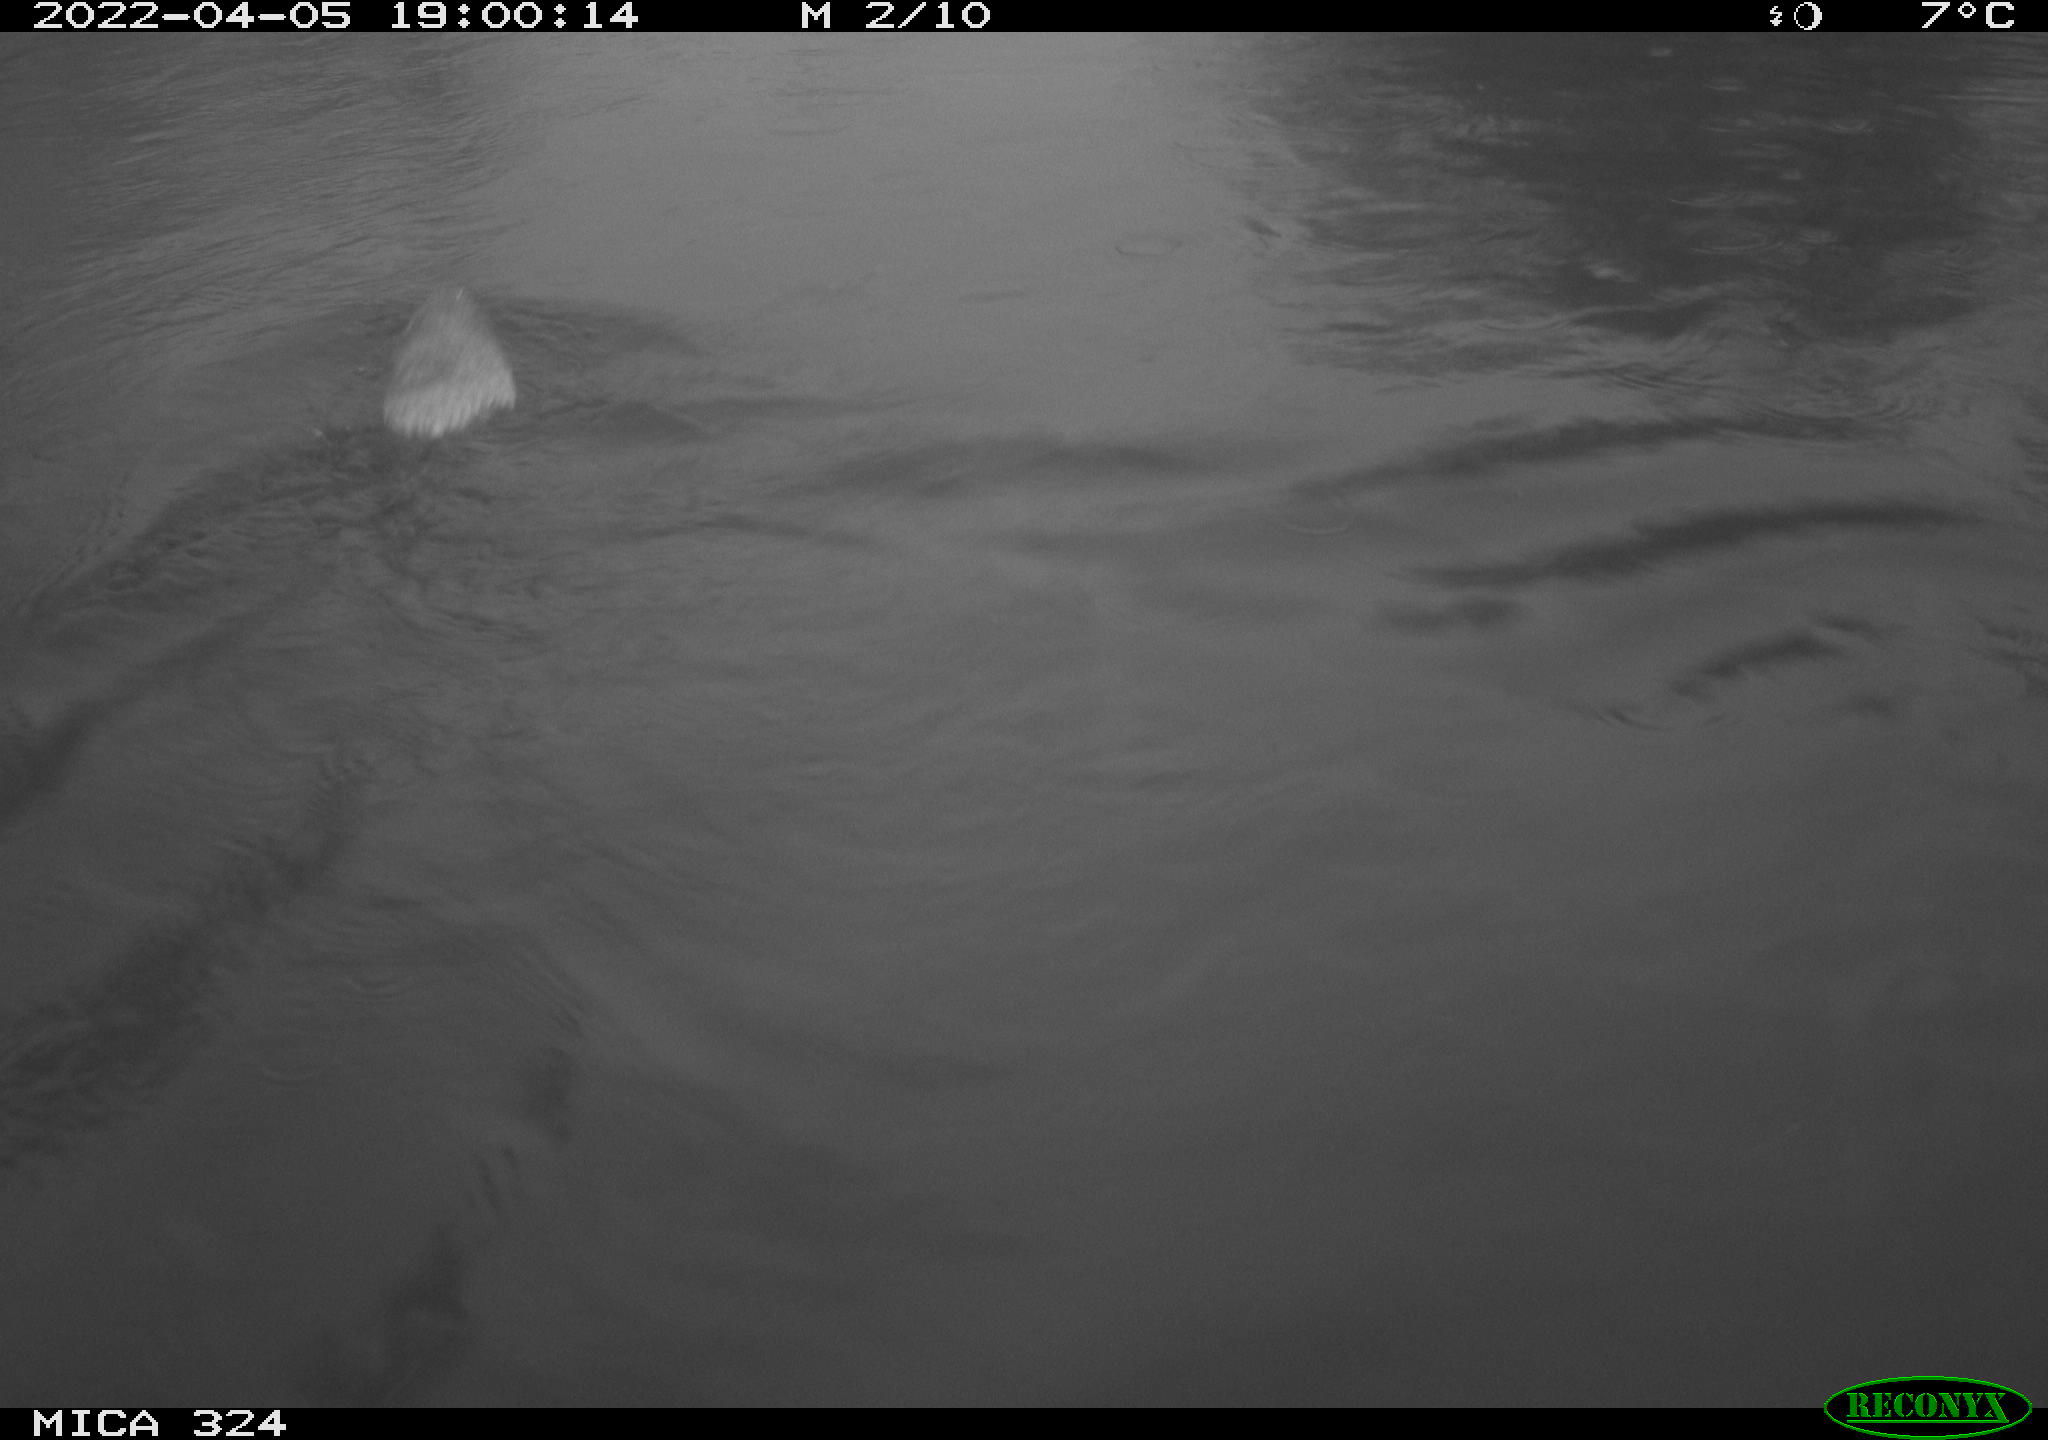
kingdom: Animalia
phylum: Chordata
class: Mammalia
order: Rodentia
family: Cricetidae
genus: Ondatra
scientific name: Ondatra zibethicus
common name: Muskrat
